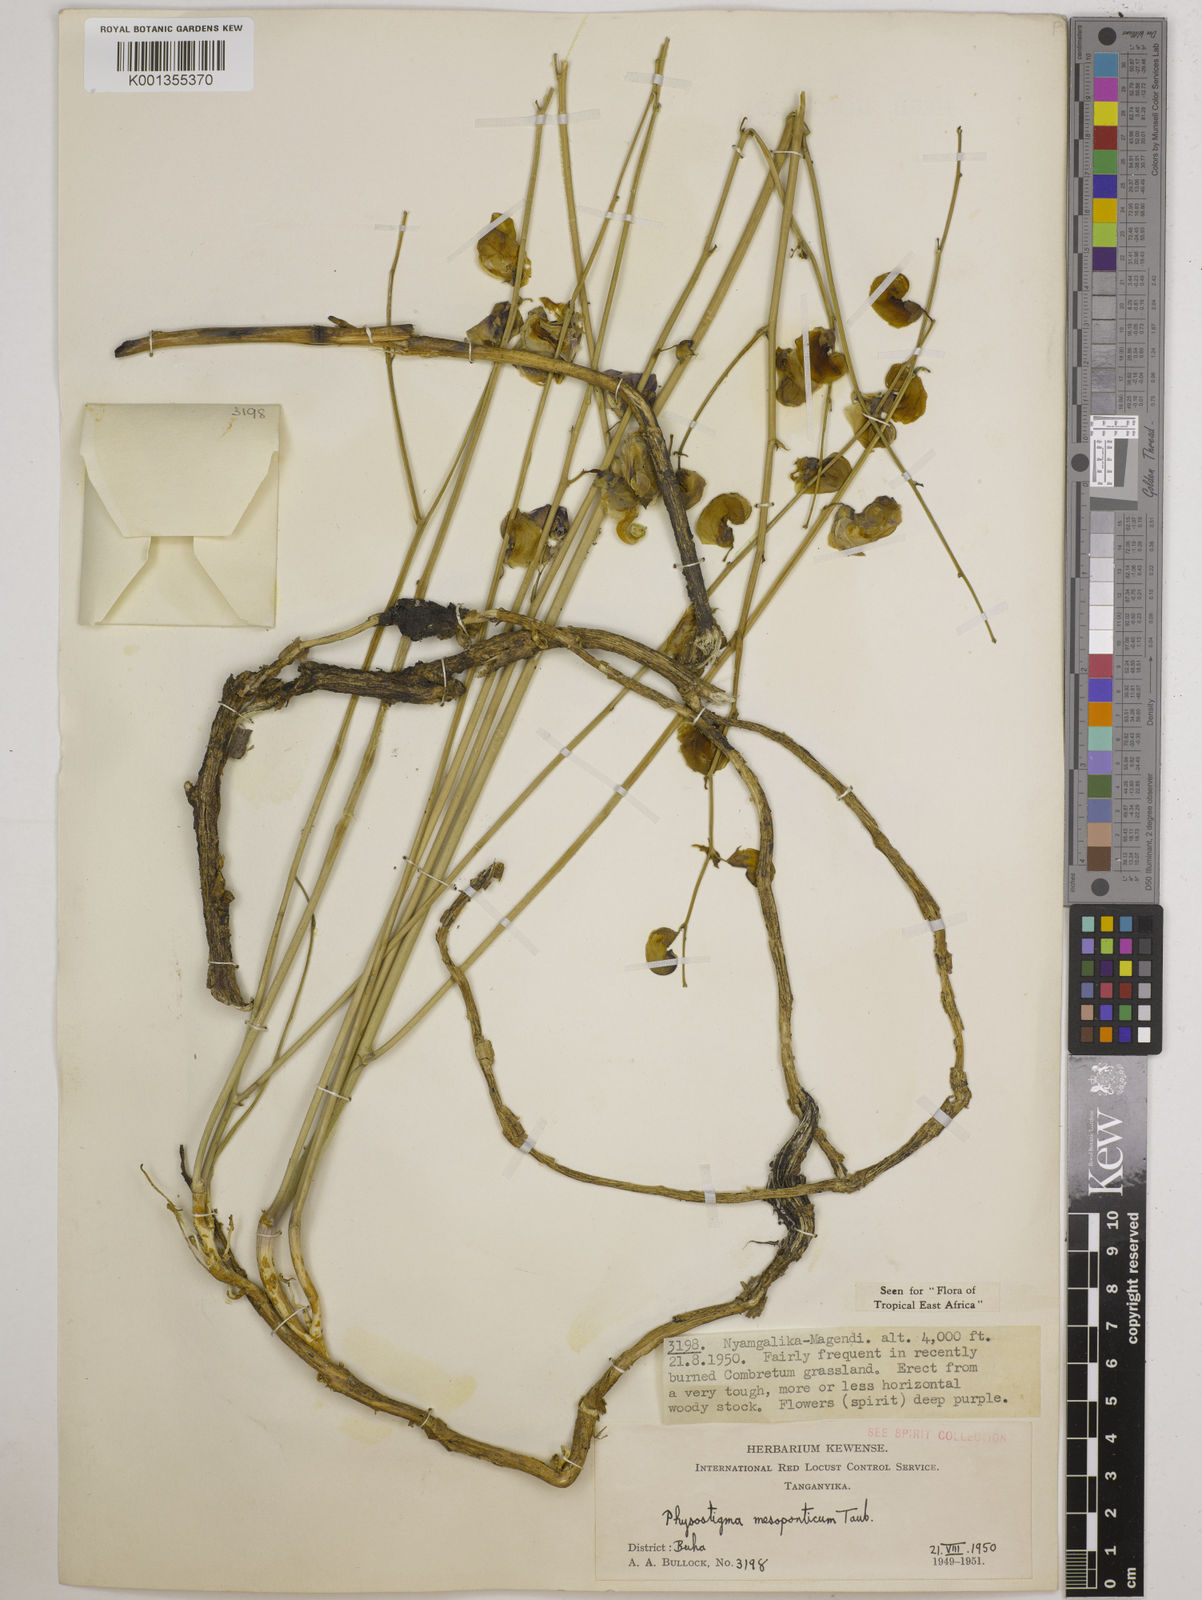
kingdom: Plantae
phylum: Tracheophyta
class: Magnoliopsida
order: Fabales
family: Fabaceae
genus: Physostigma
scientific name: Physostigma mesoponticum
